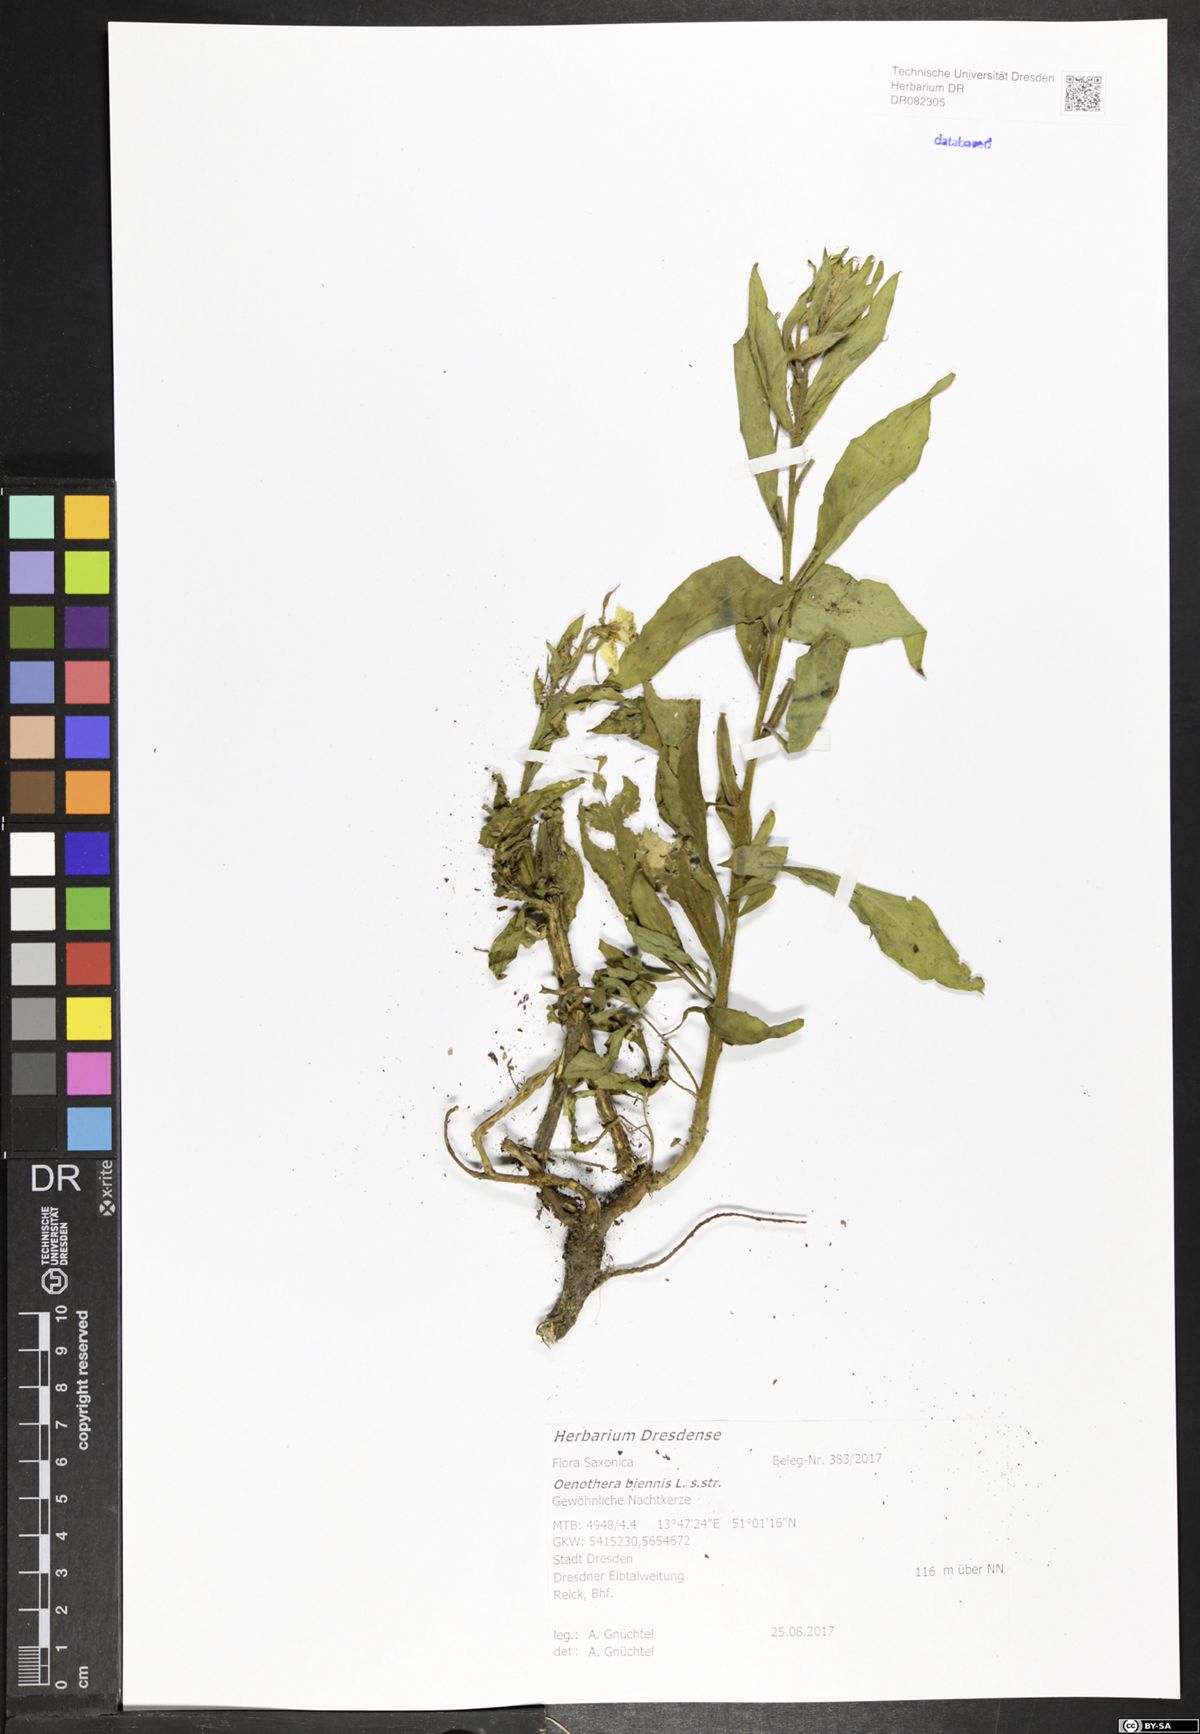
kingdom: Plantae
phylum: Tracheophyta
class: Magnoliopsida
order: Myrtales
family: Onagraceae
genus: Oenothera
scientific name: Oenothera biennis
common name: Common evening-primrose
